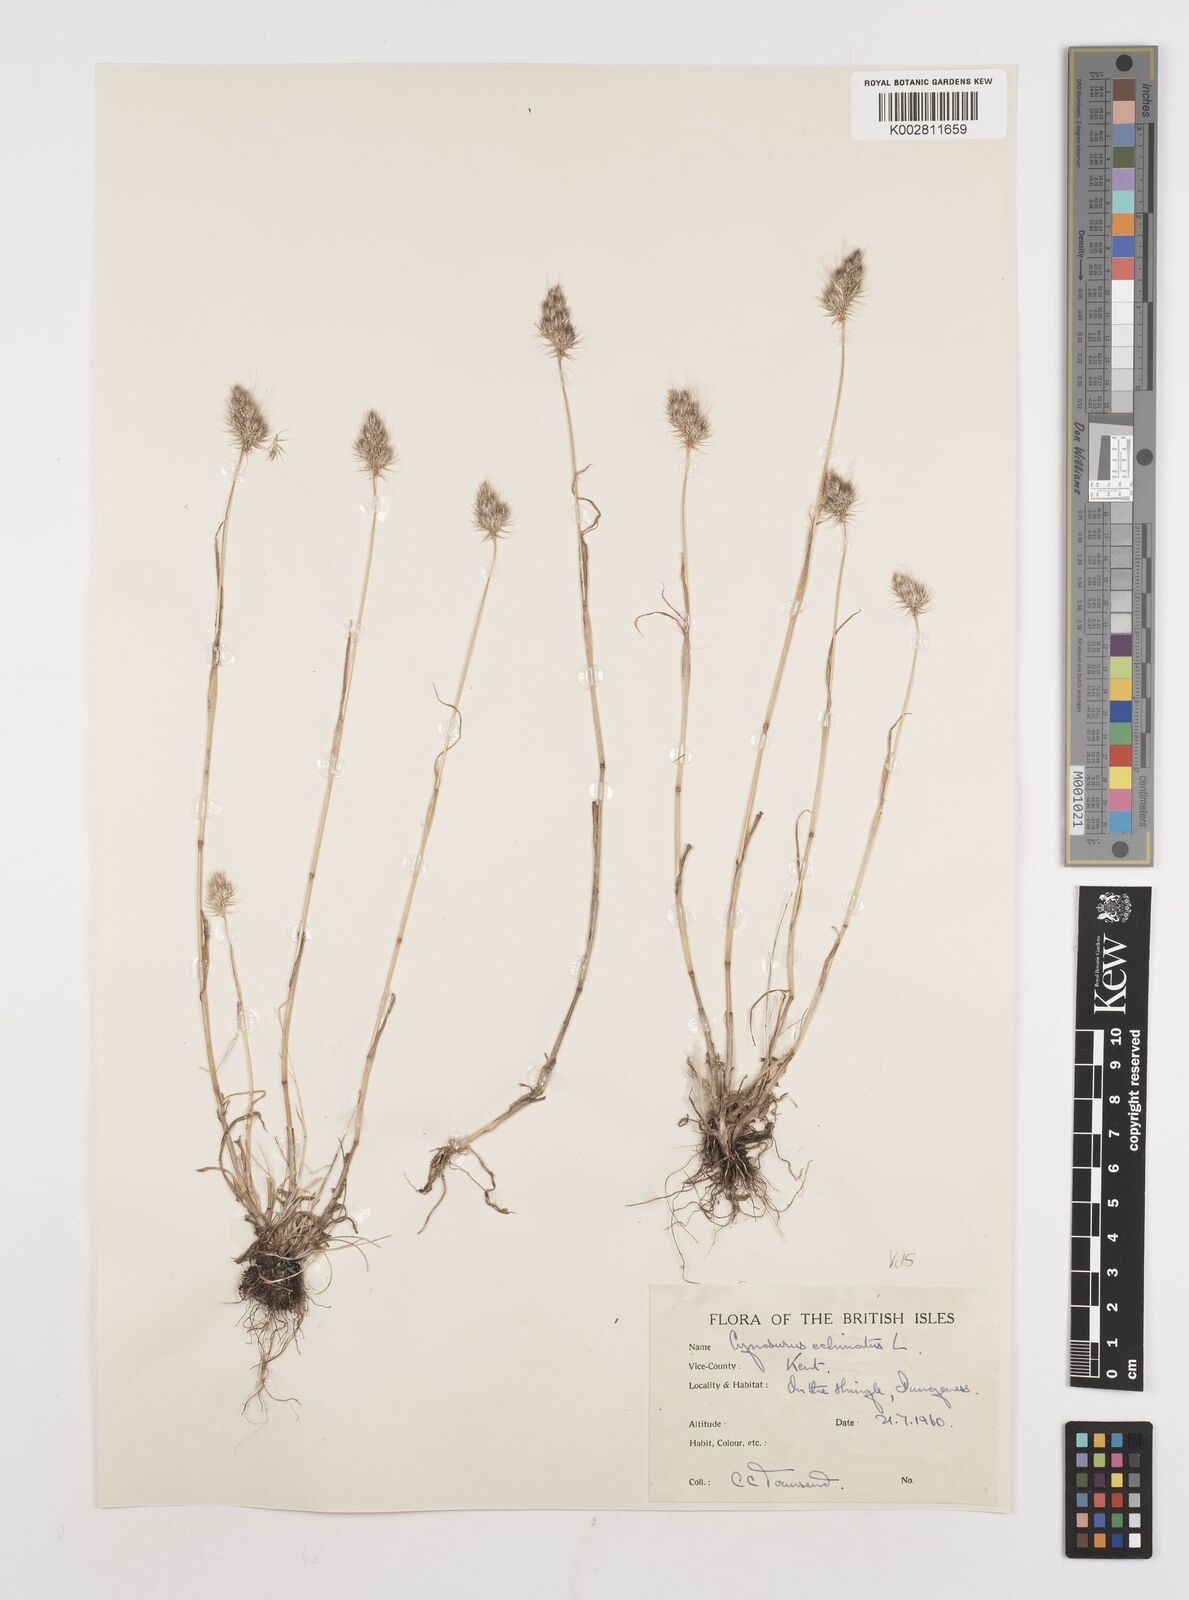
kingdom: Plantae
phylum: Tracheophyta
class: Liliopsida
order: Poales
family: Poaceae
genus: Cynosurus
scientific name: Cynosurus echinatus
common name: Rough dog's-tail
